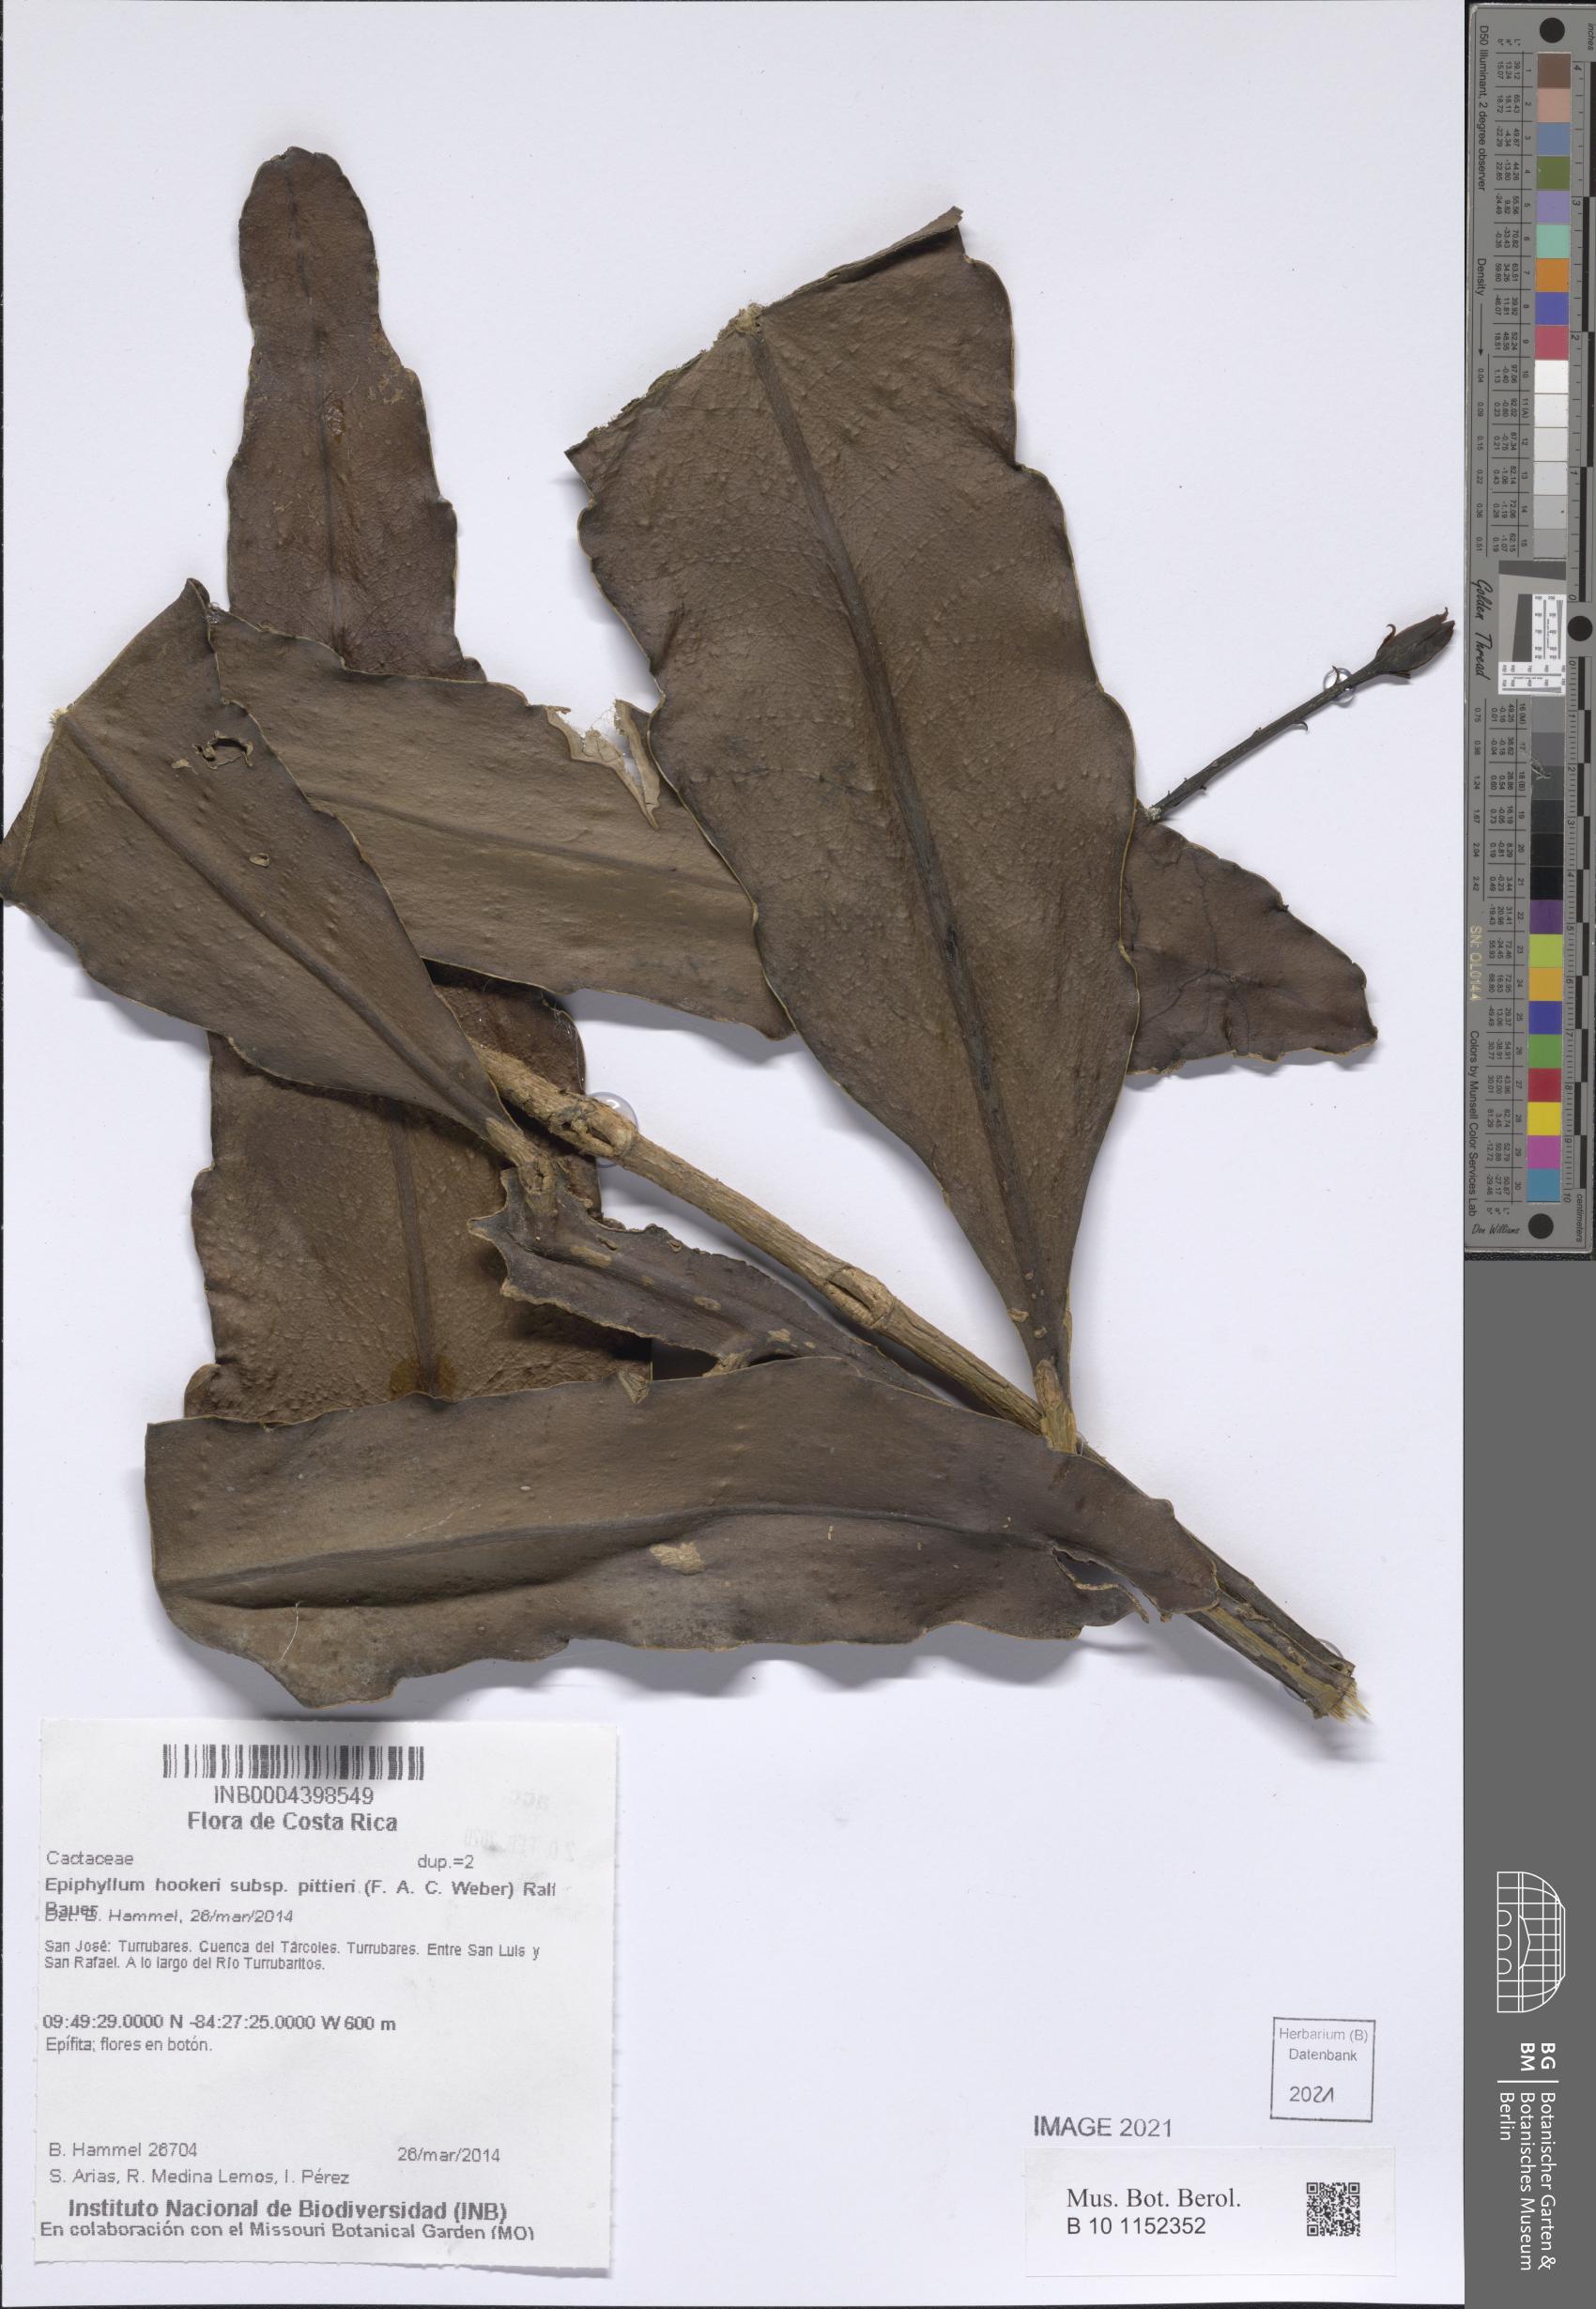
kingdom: Plantae
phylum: Tracheophyta
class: Magnoliopsida
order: Caryophyllales
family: Cactaceae
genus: Epiphyllum
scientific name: Epiphyllum hookeri
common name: Climbing cactus
